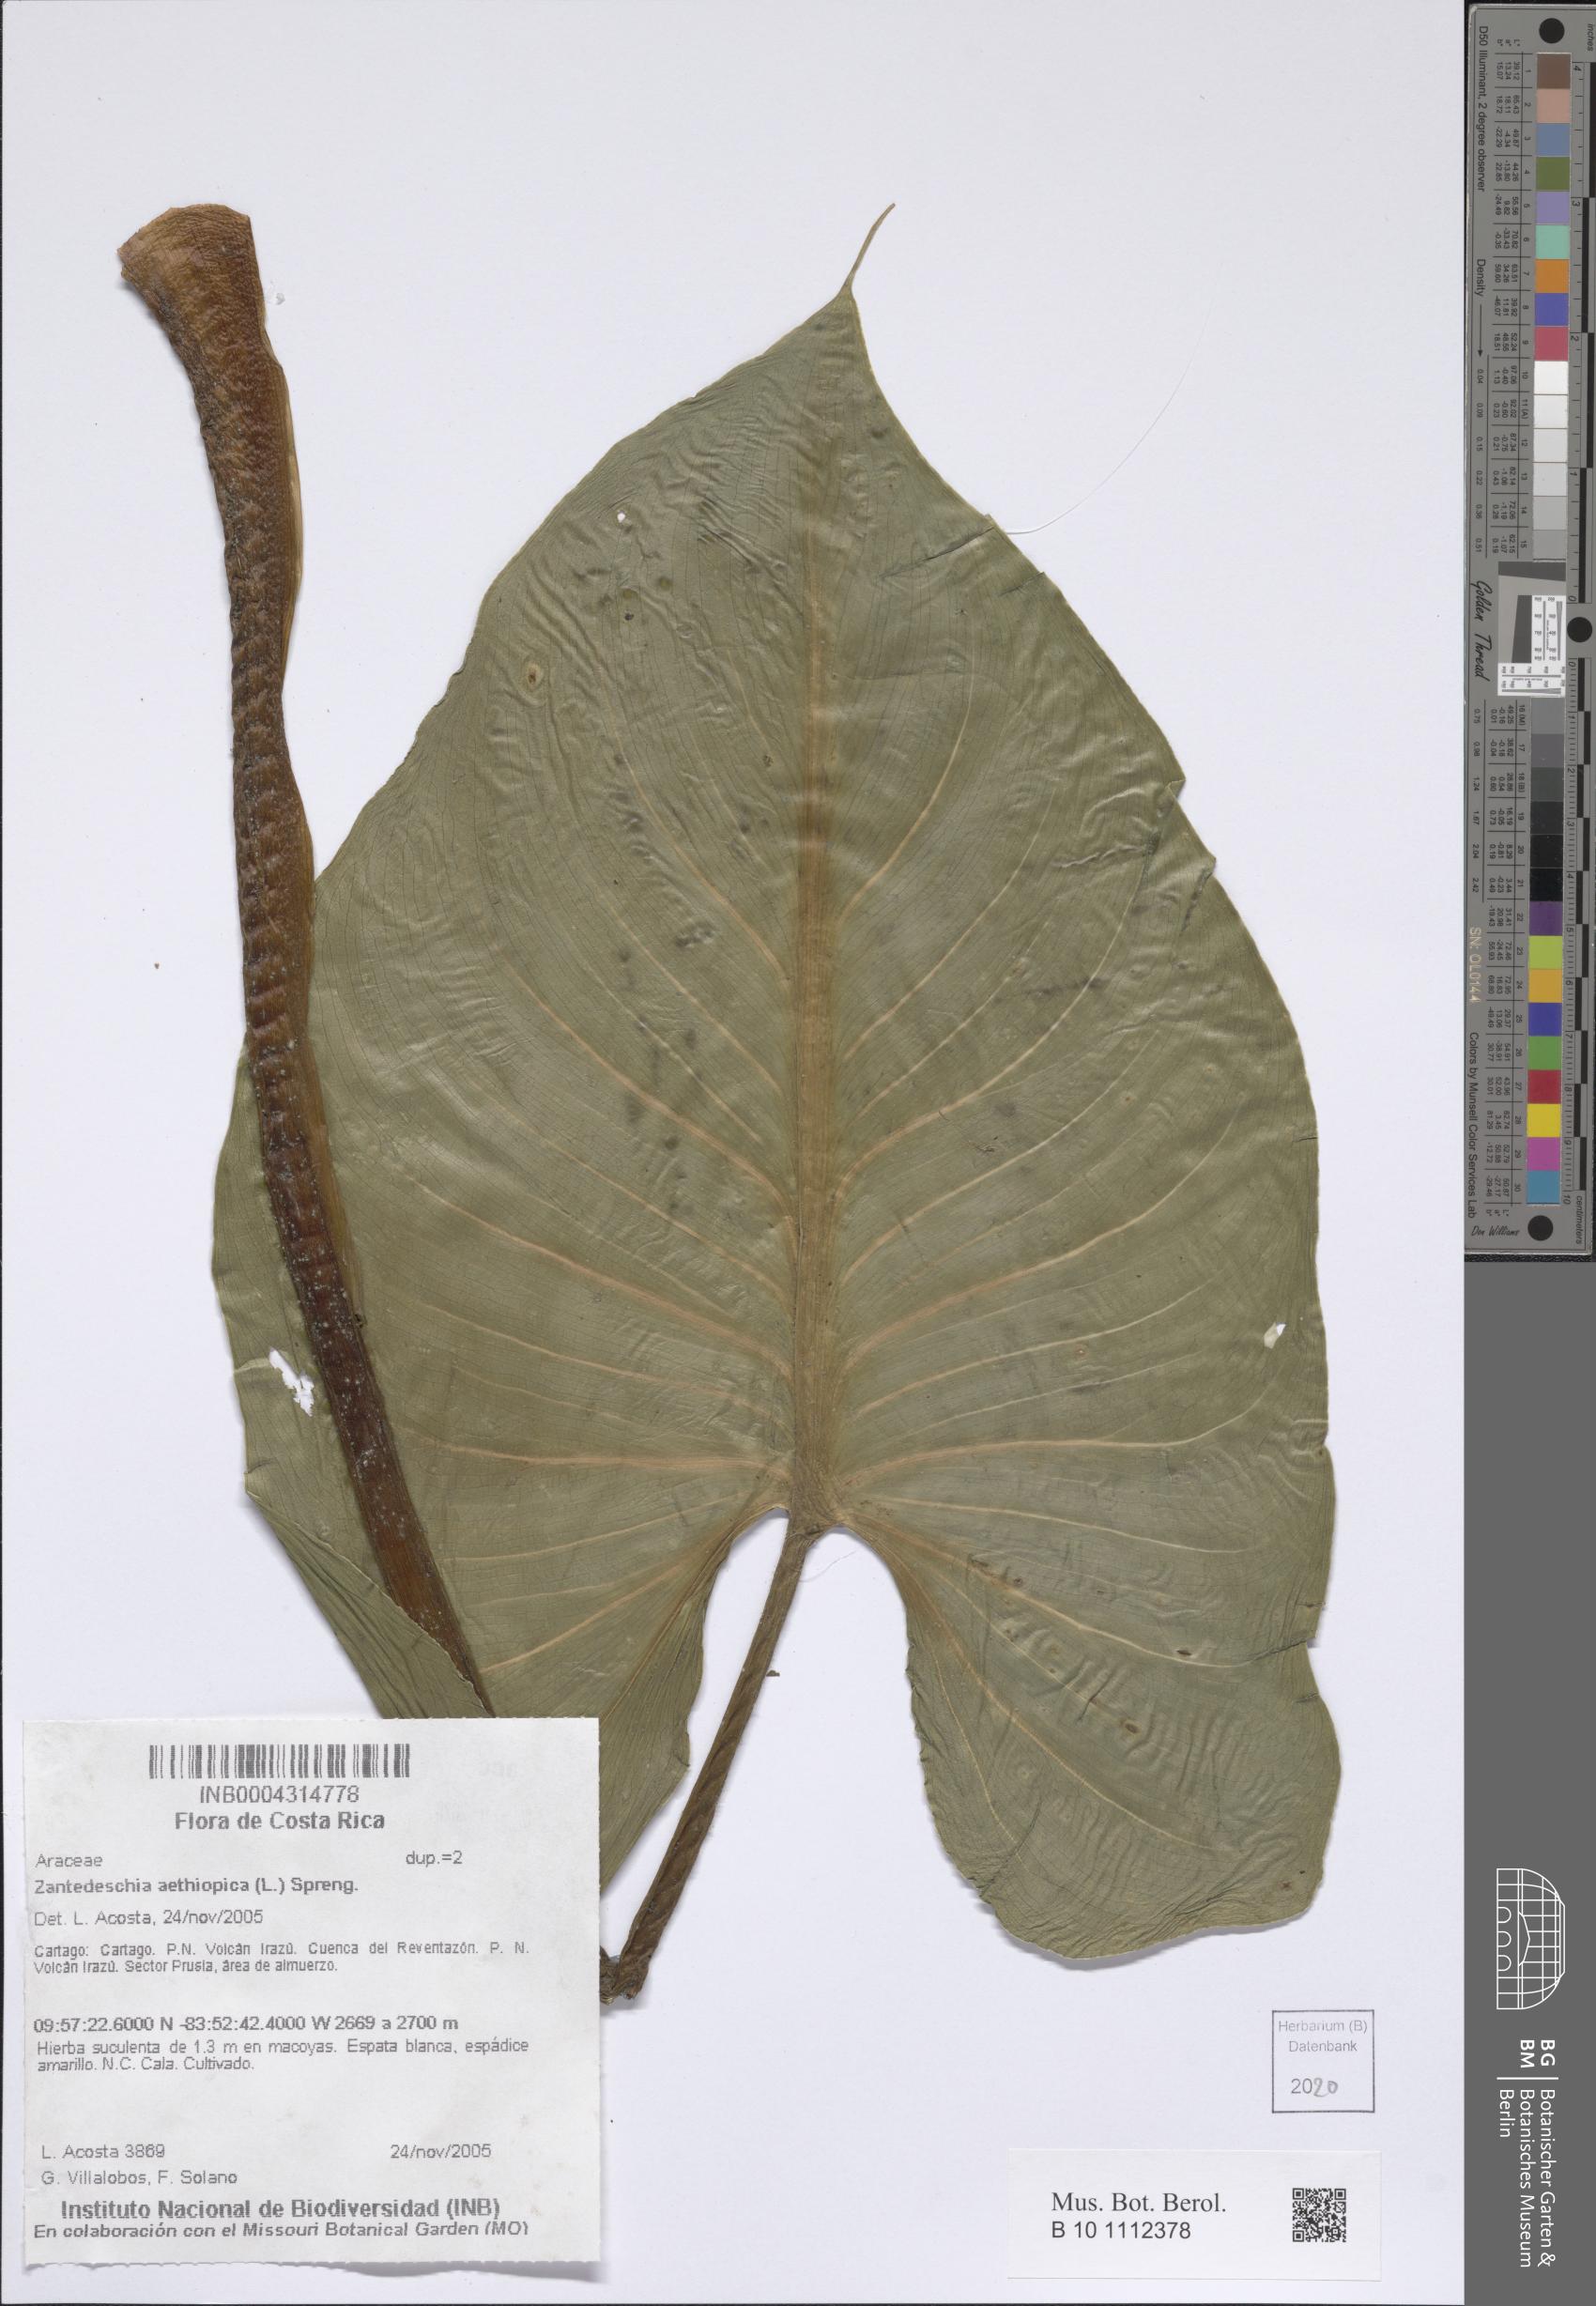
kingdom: Plantae
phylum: Tracheophyta
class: Liliopsida
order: Alismatales
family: Araceae
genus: Zantedeschia
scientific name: Zantedeschia aethiopica
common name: Altar-lily
